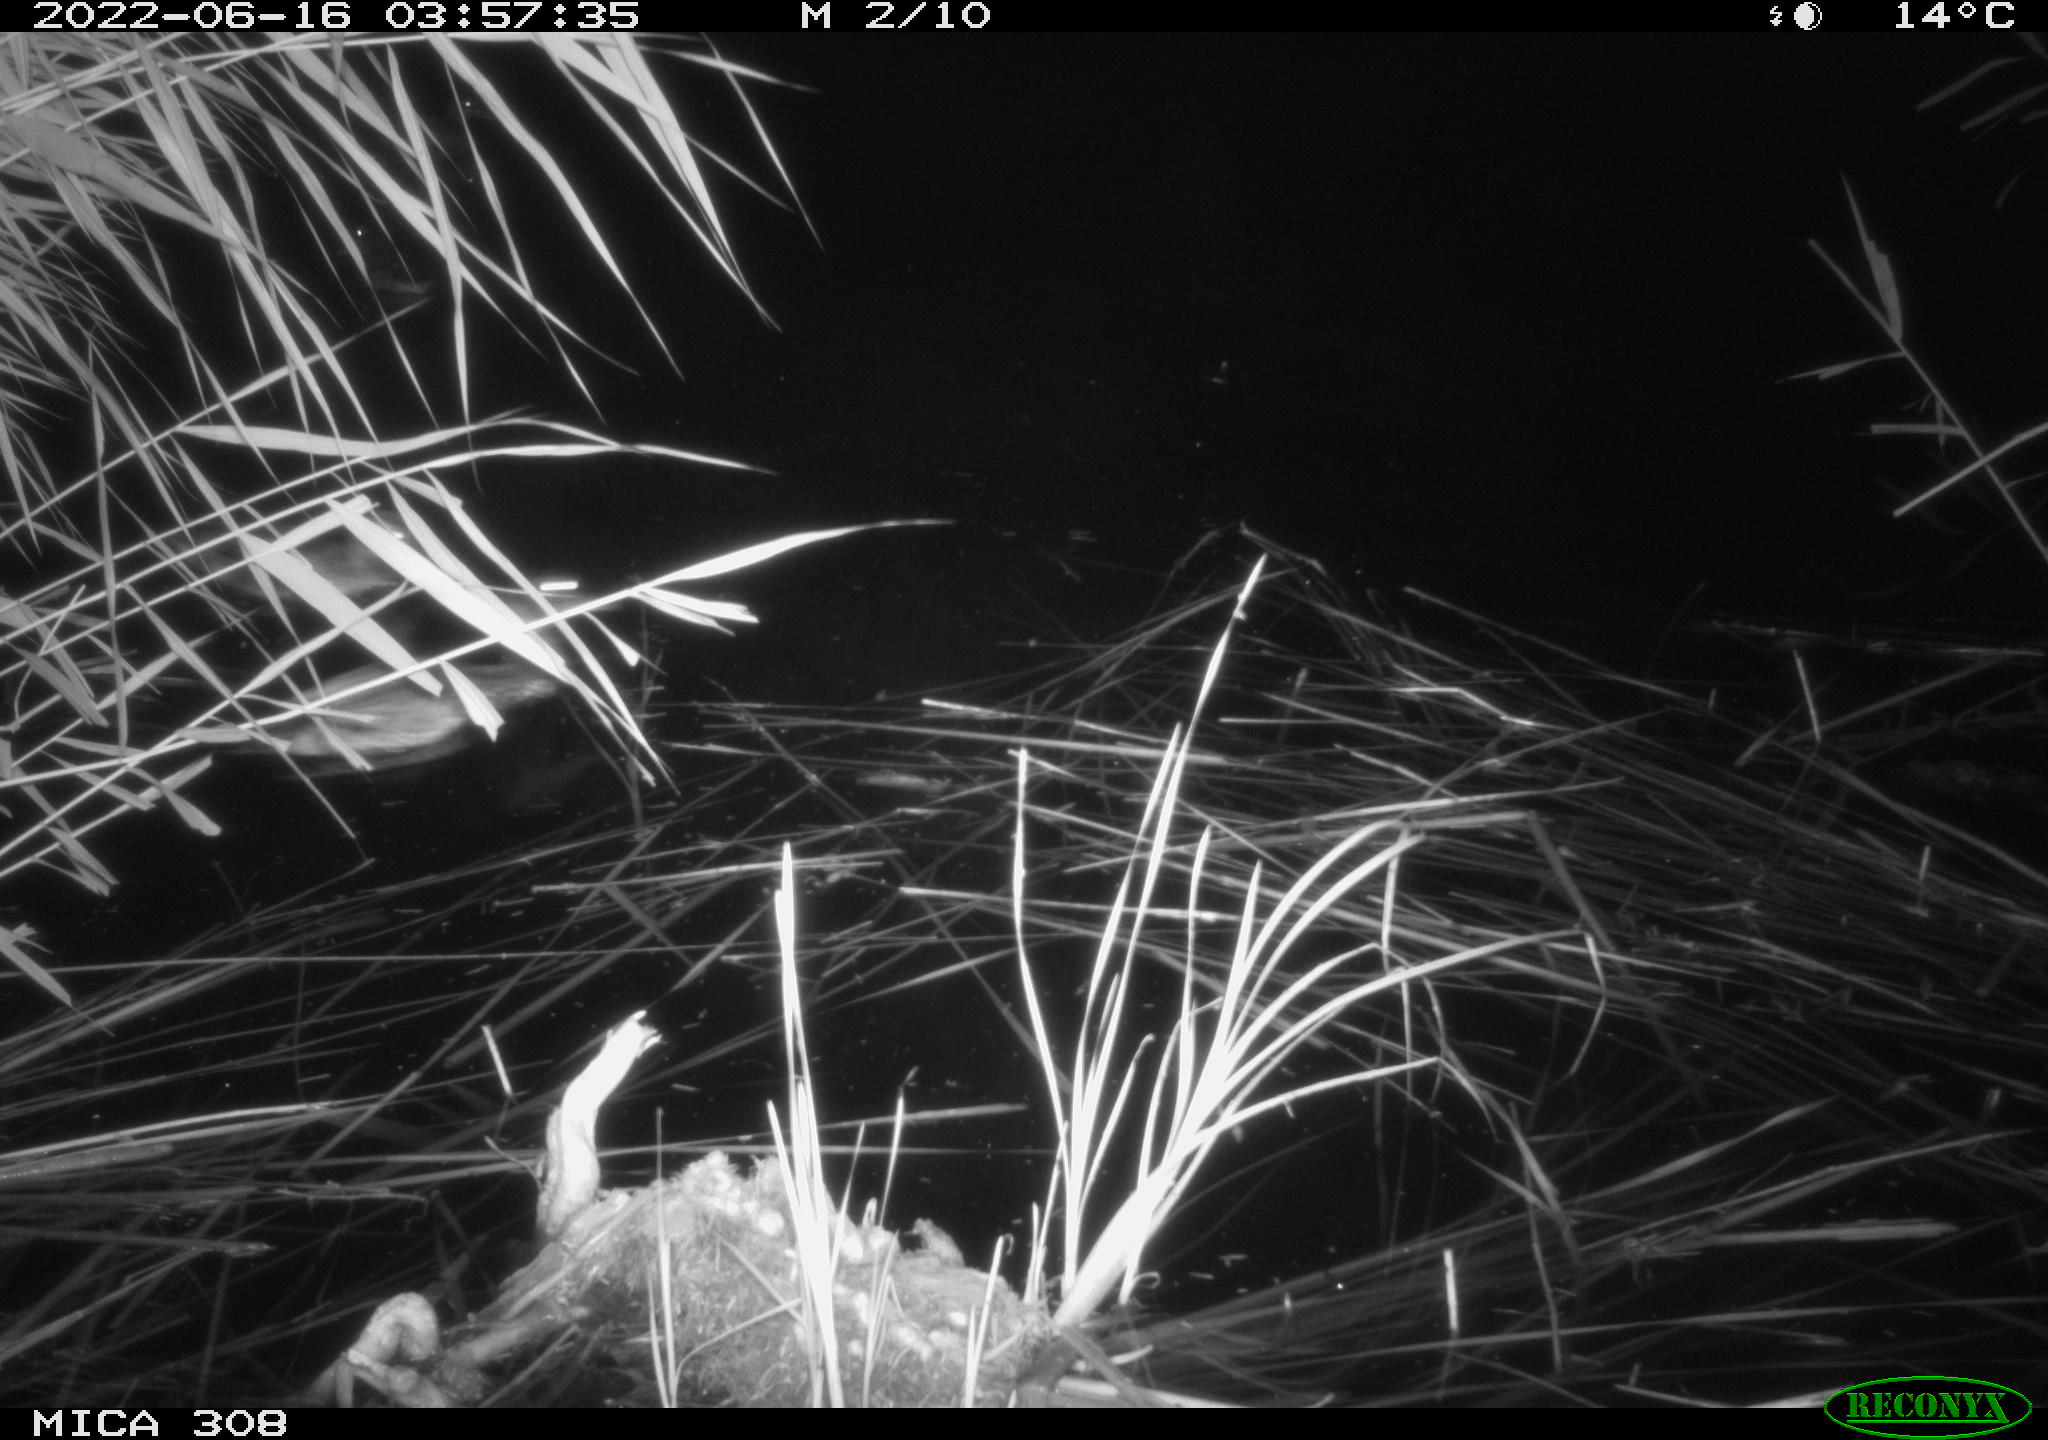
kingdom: Animalia
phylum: Chordata
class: Aves
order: Anseriformes
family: Anatidae
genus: Mareca
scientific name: Mareca strepera
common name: Gadwall
